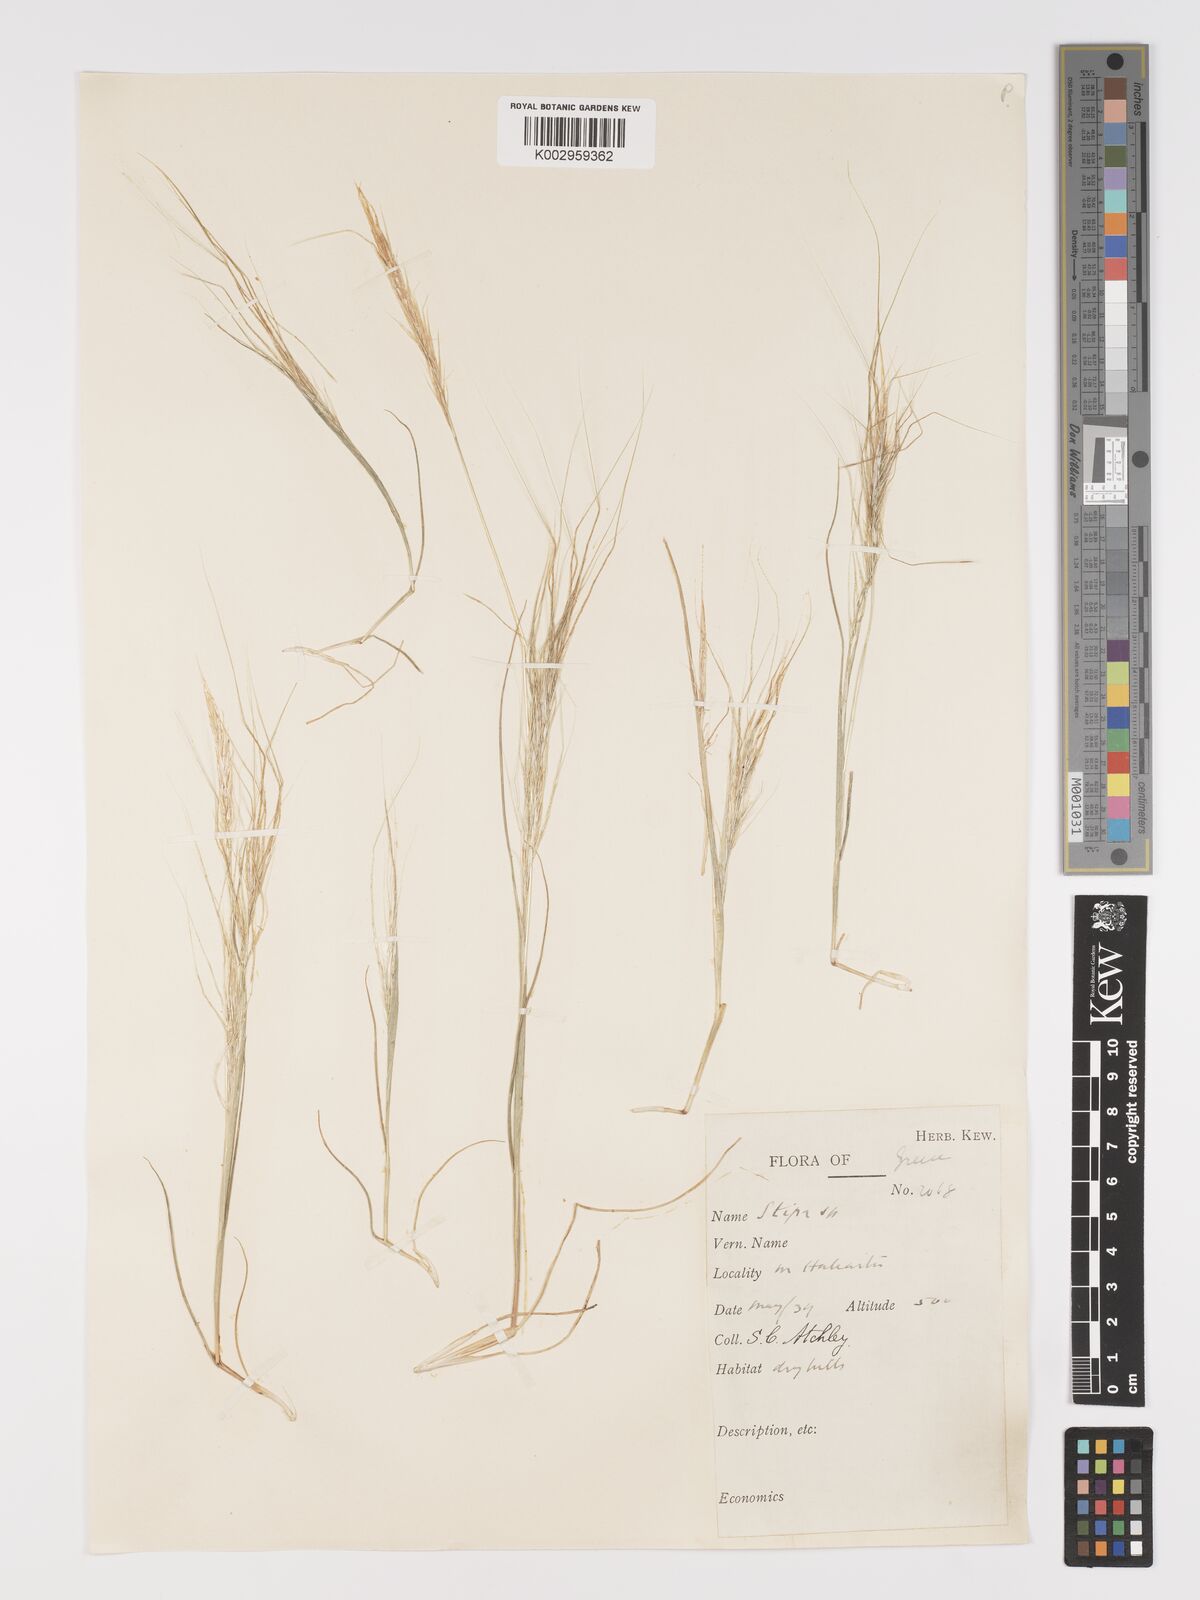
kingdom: Plantae
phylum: Tracheophyta
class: Liliopsida
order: Poales
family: Poaceae
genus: Stipellula
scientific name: Stipellula capensis
